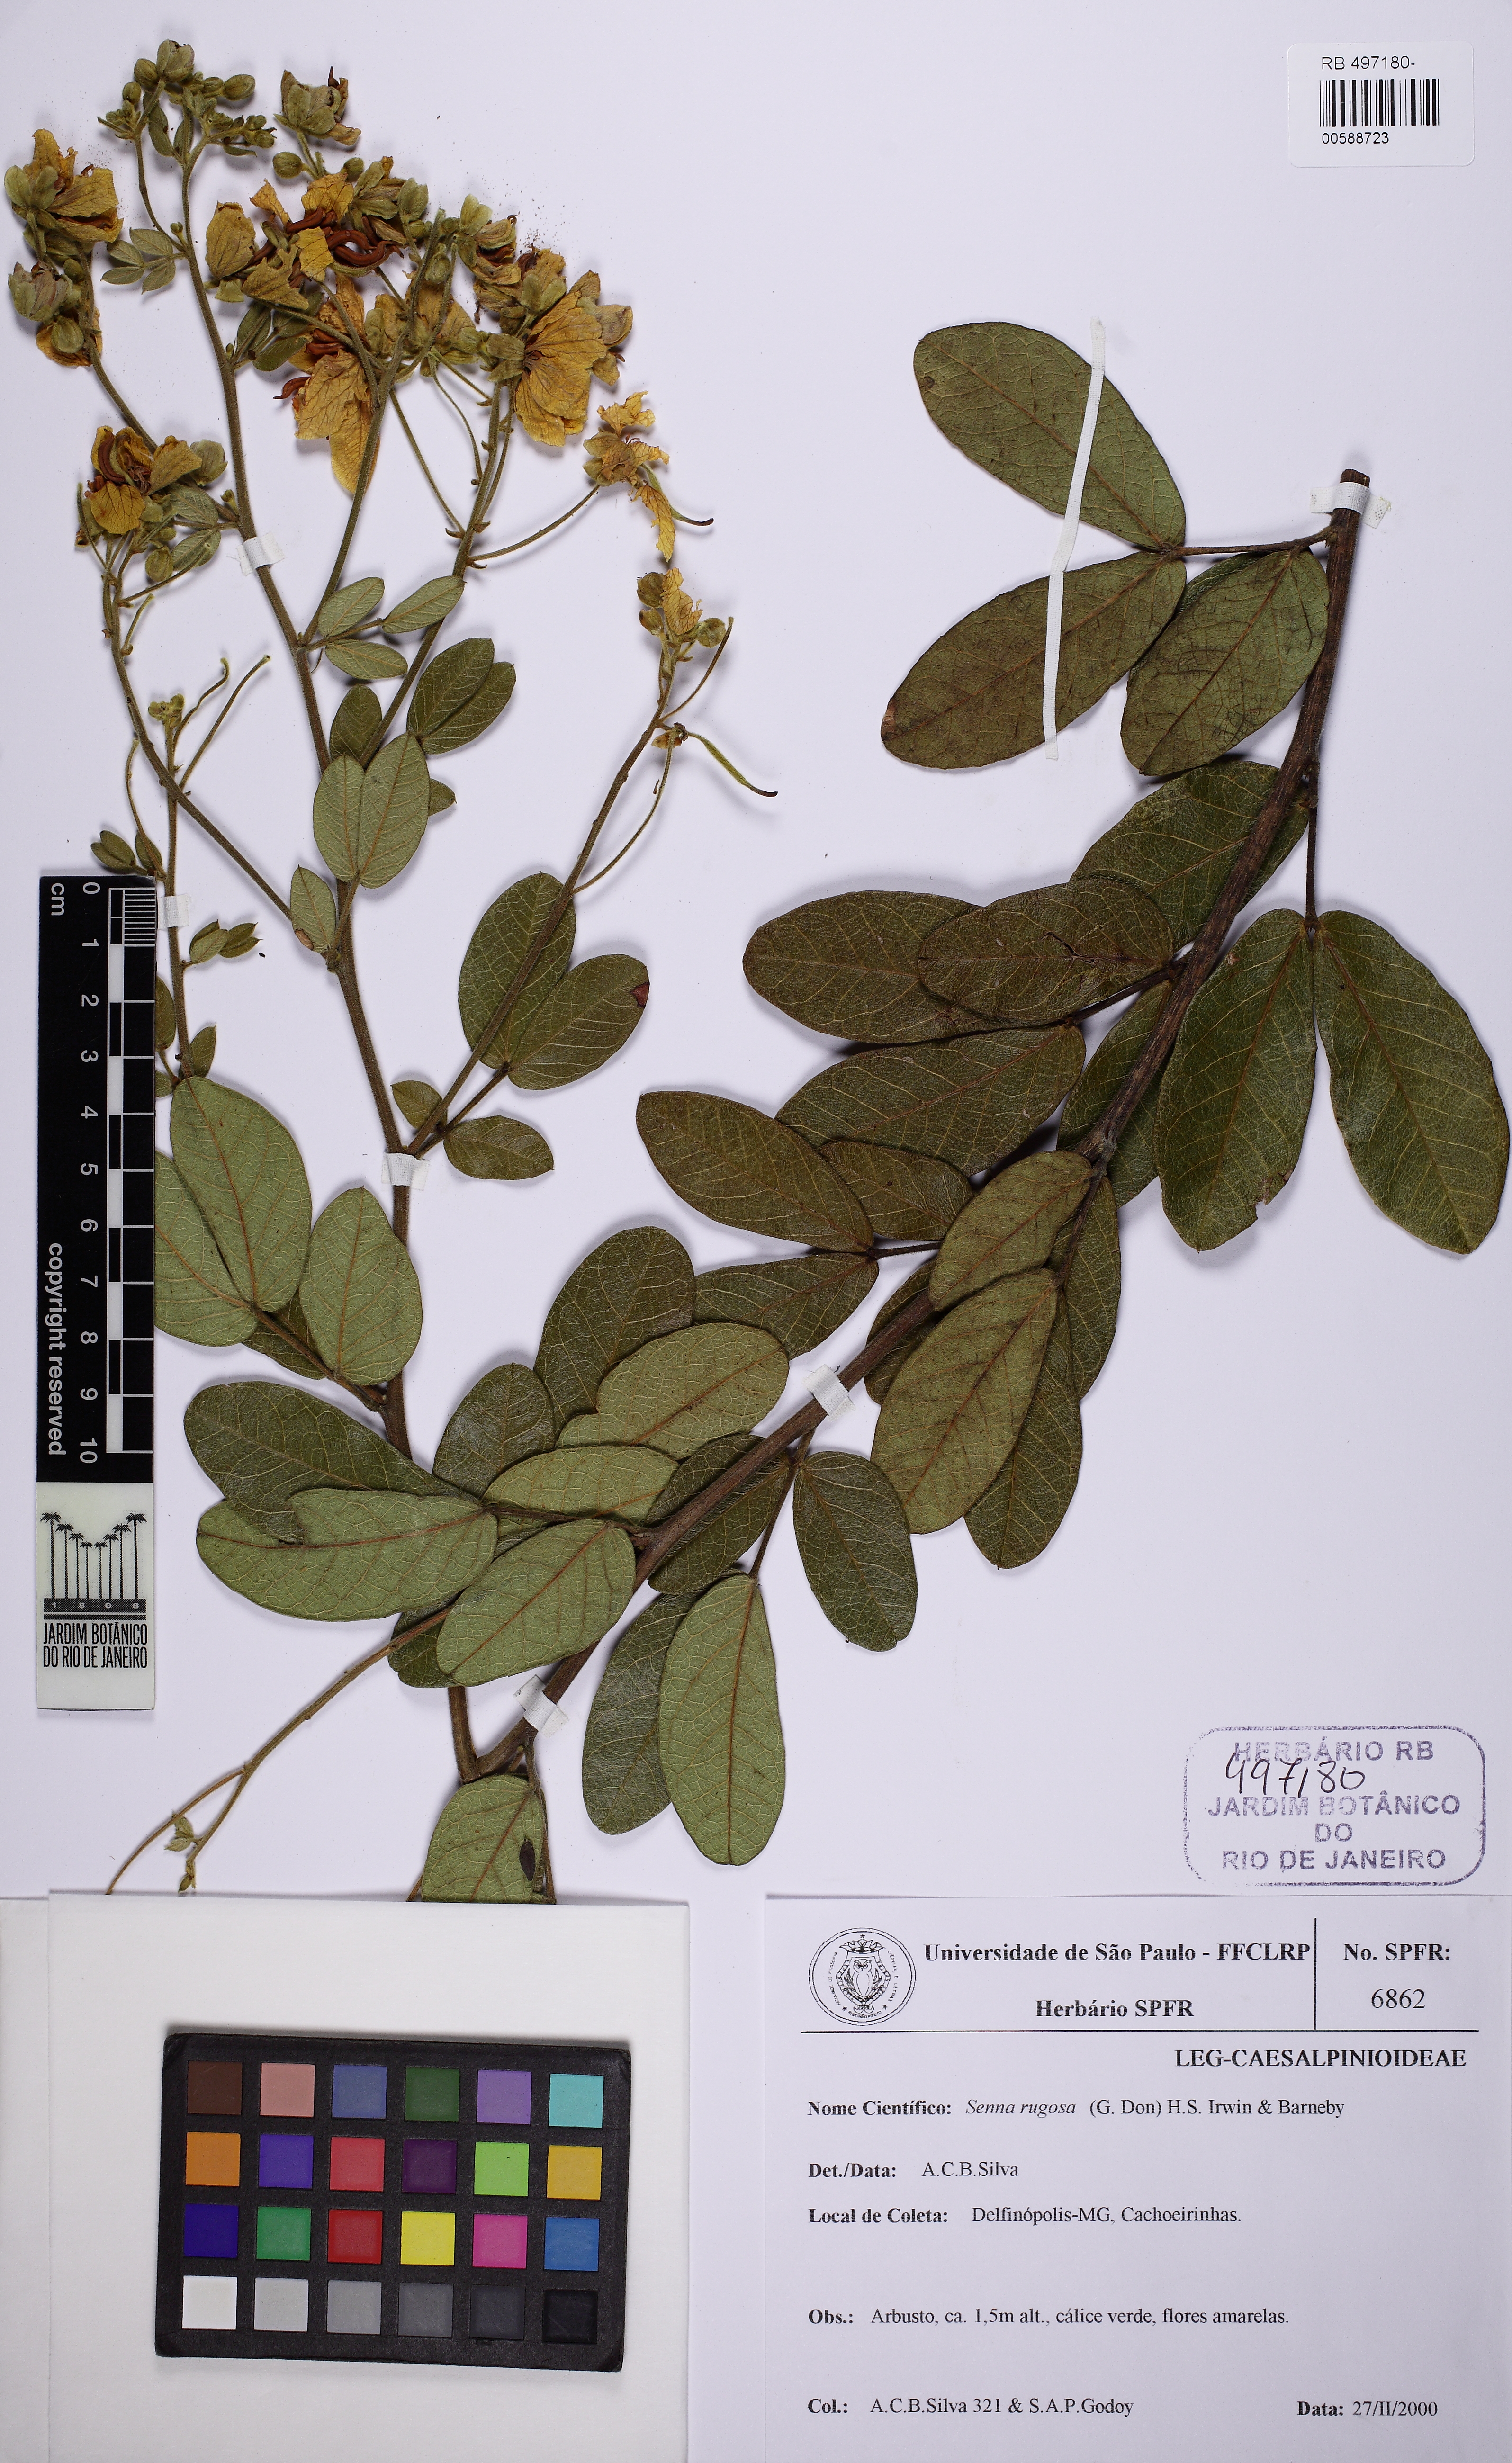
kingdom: Plantae
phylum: Tracheophyta
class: Magnoliopsida
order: Fabales
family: Fabaceae
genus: Senna
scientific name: Senna rugosa
